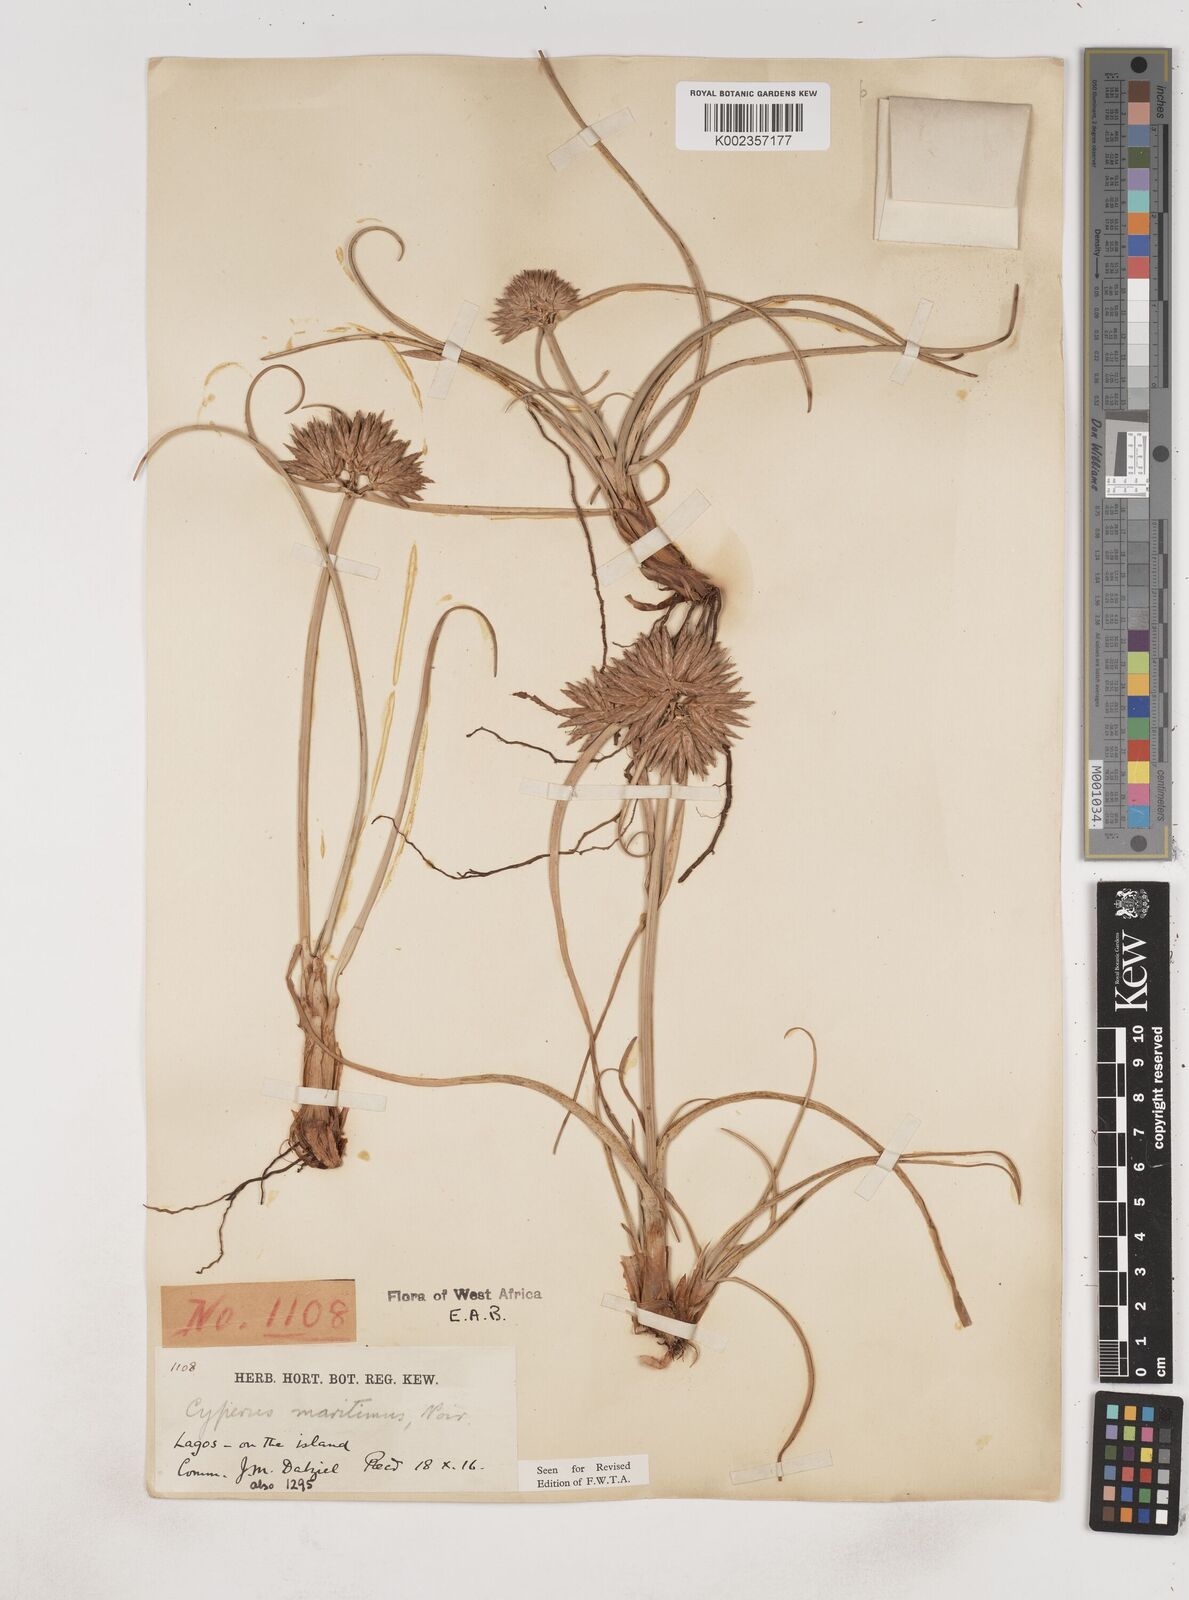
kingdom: Plantae
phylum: Tracheophyta
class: Liliopsida
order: Poales
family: Cyperaceae
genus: Cyperus
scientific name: Cyperus crassipes
